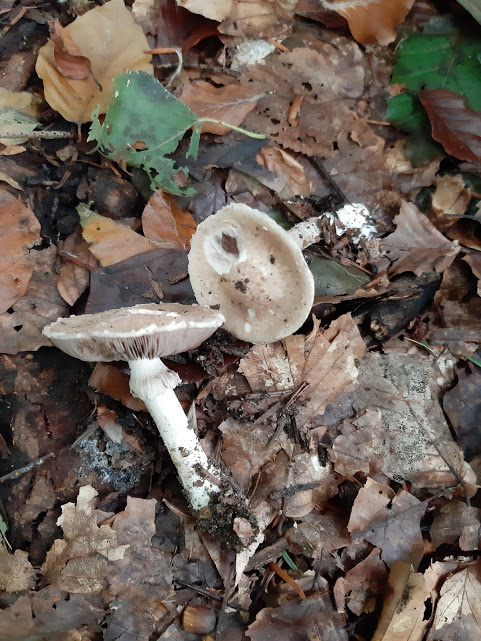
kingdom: Fungi
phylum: Basidiomycota
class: Agaricomycetes
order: Agaricales
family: Agaricaceae
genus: Agaricus
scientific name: Agaricus
